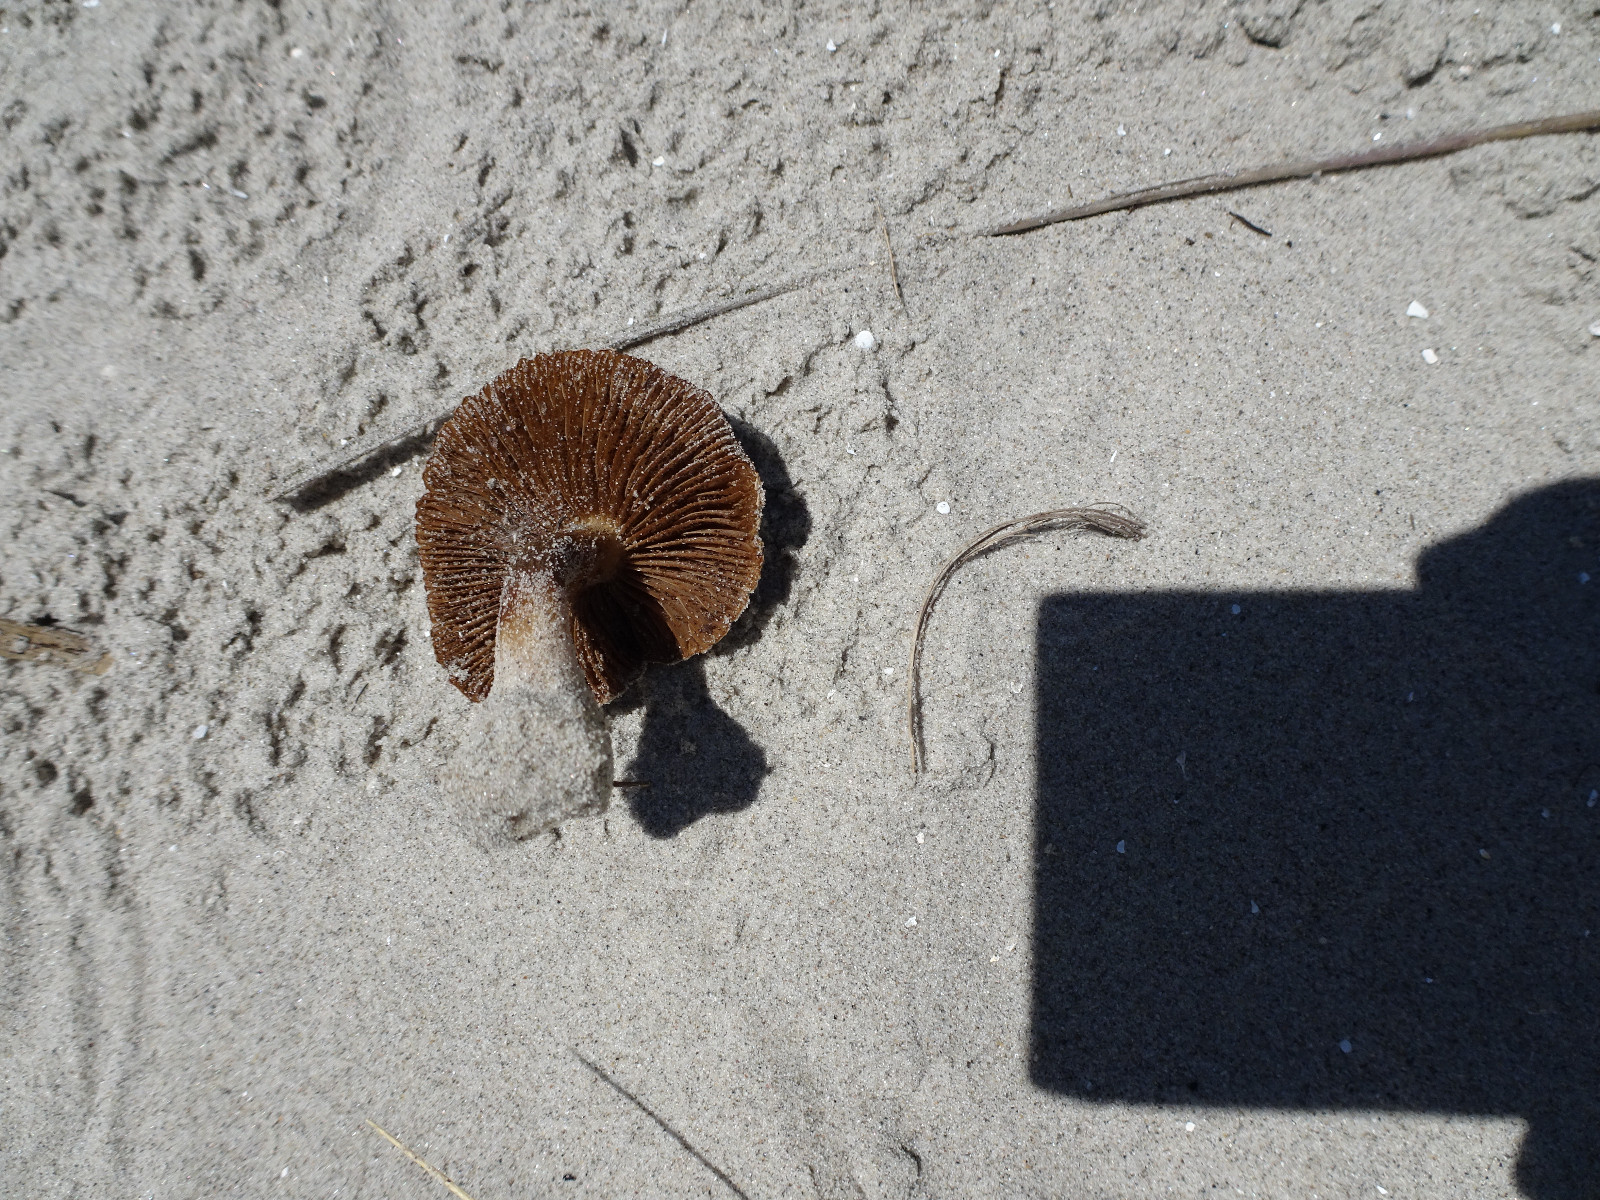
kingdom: Fungi
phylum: Basidiomycota
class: Agaricomycetes
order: Agaricales
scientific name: Agaricales
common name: champignonordenen
